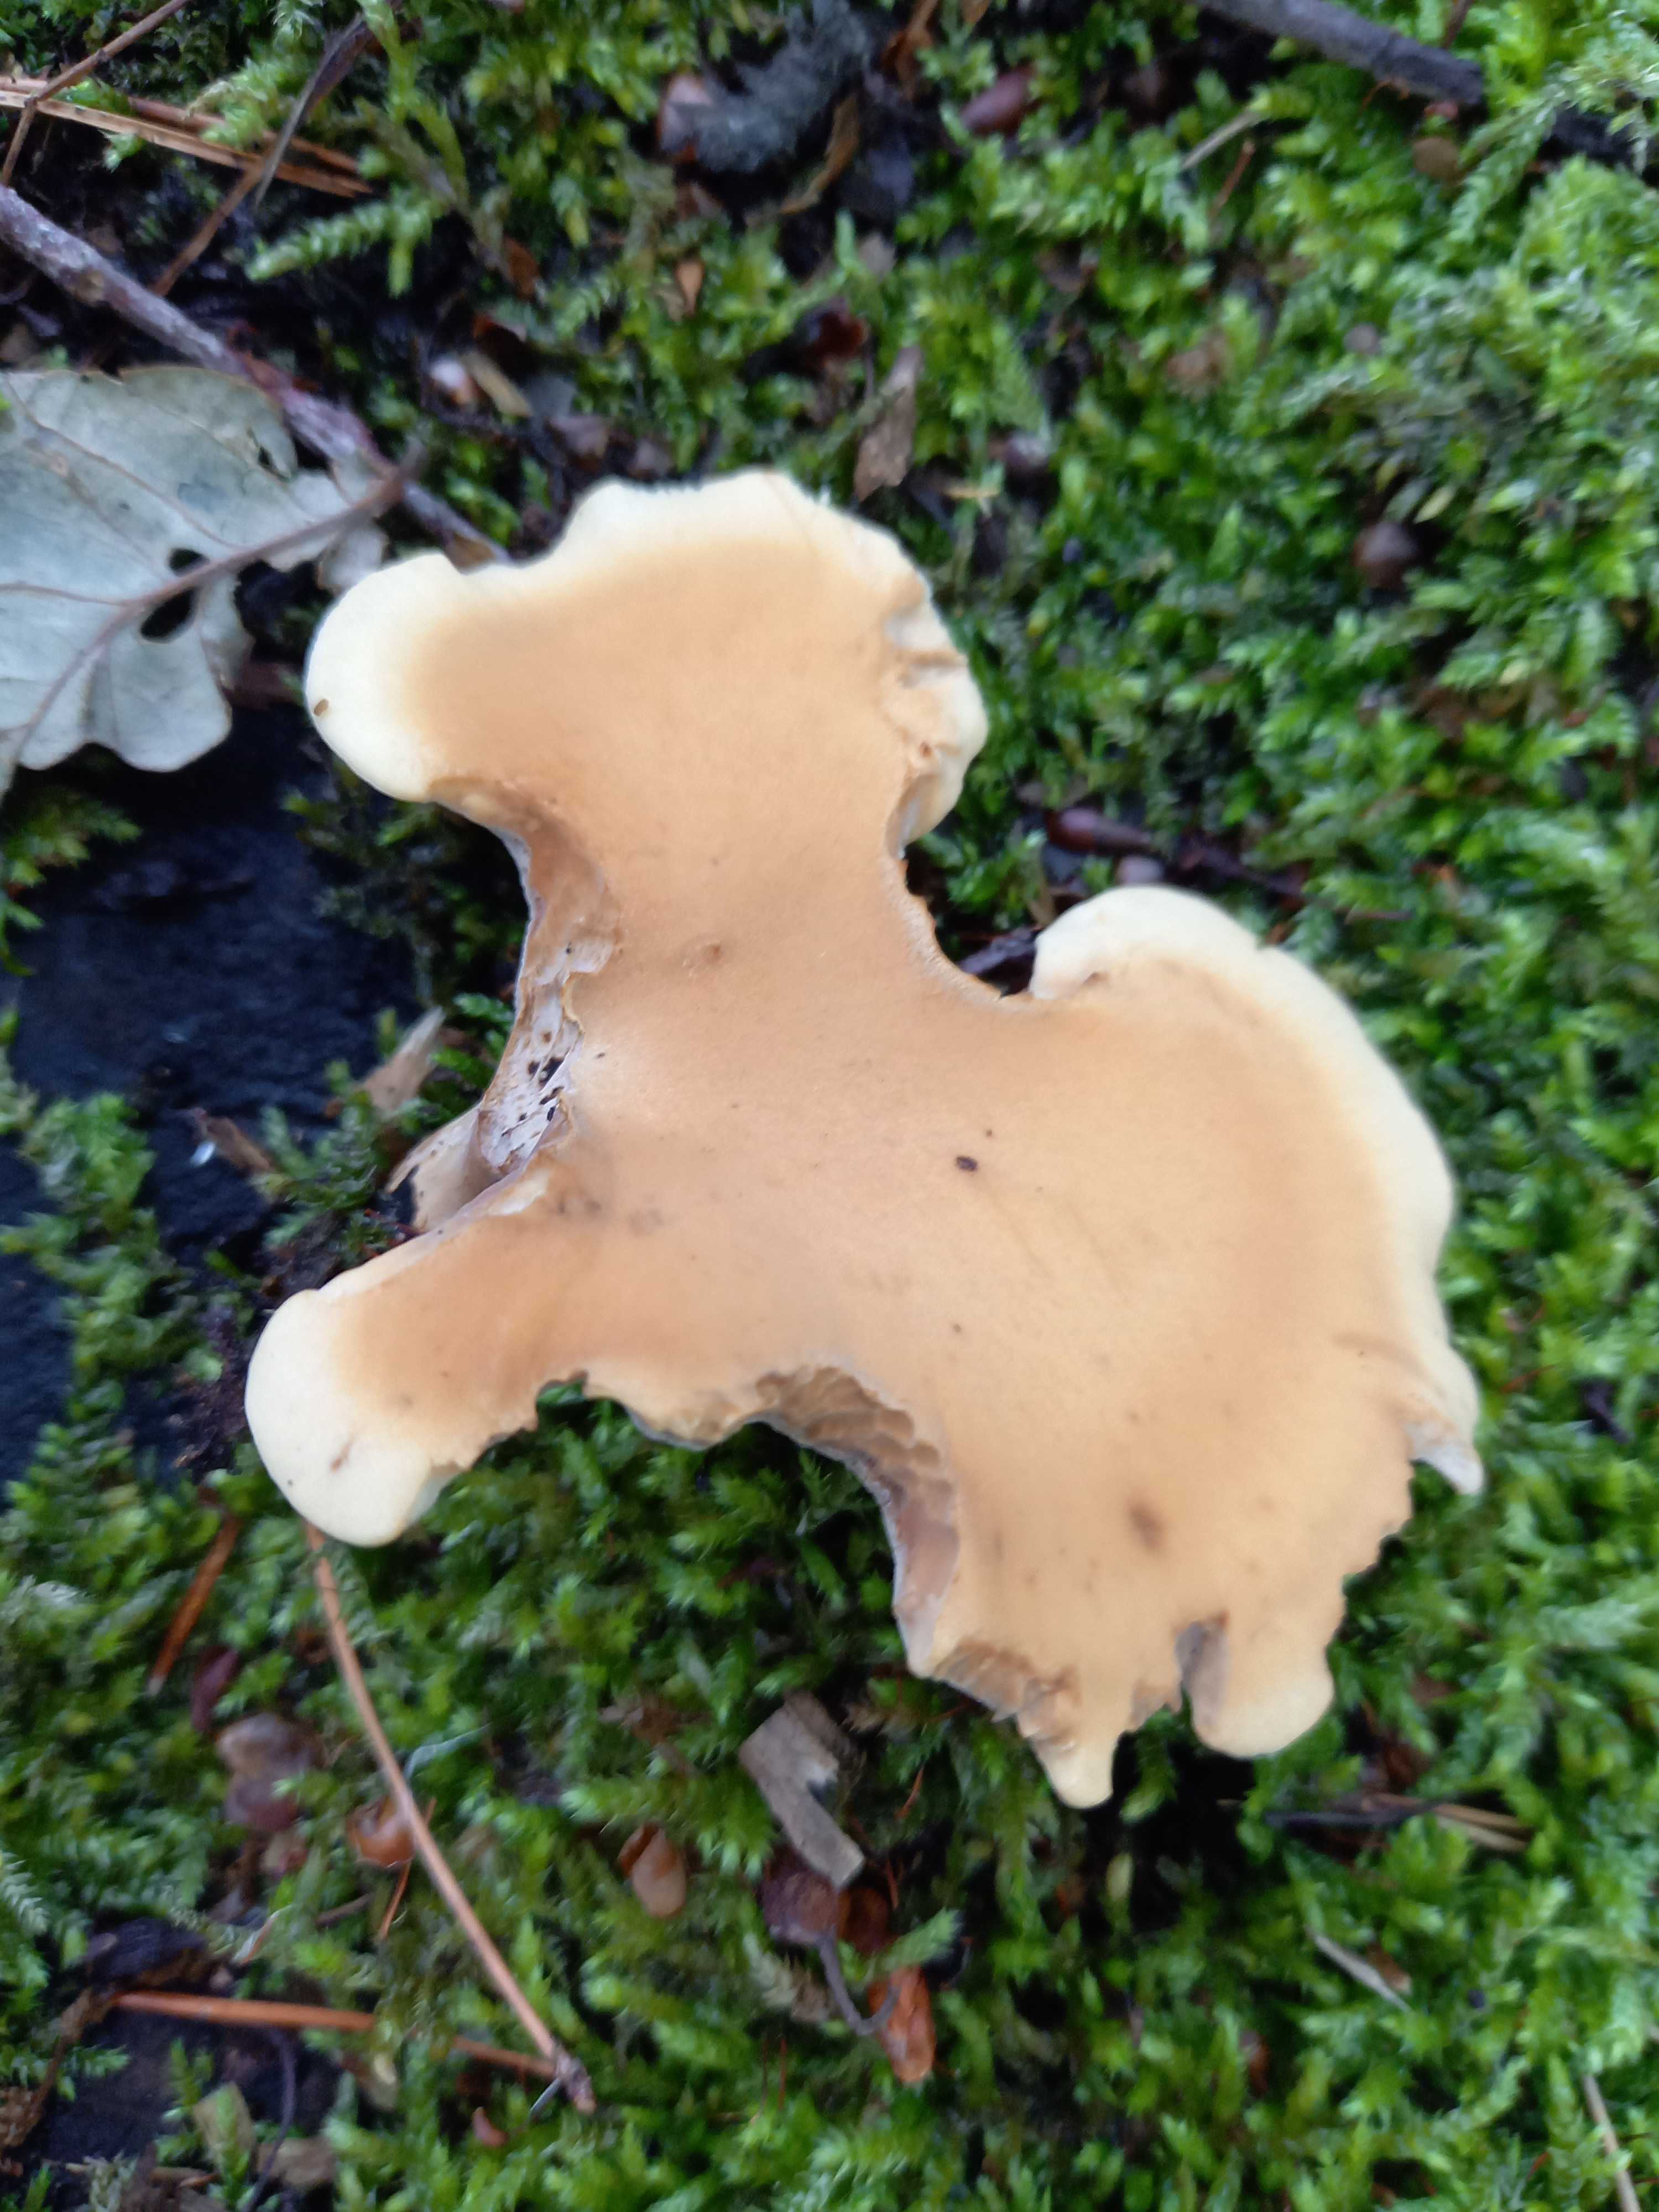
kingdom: Fungi
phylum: Basidiomycota
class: Agaricomycetes
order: Polyporales
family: Polyporaceae
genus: Cerioporus
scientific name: Cerioporus varius
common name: foranderlig stilkporesvamp
